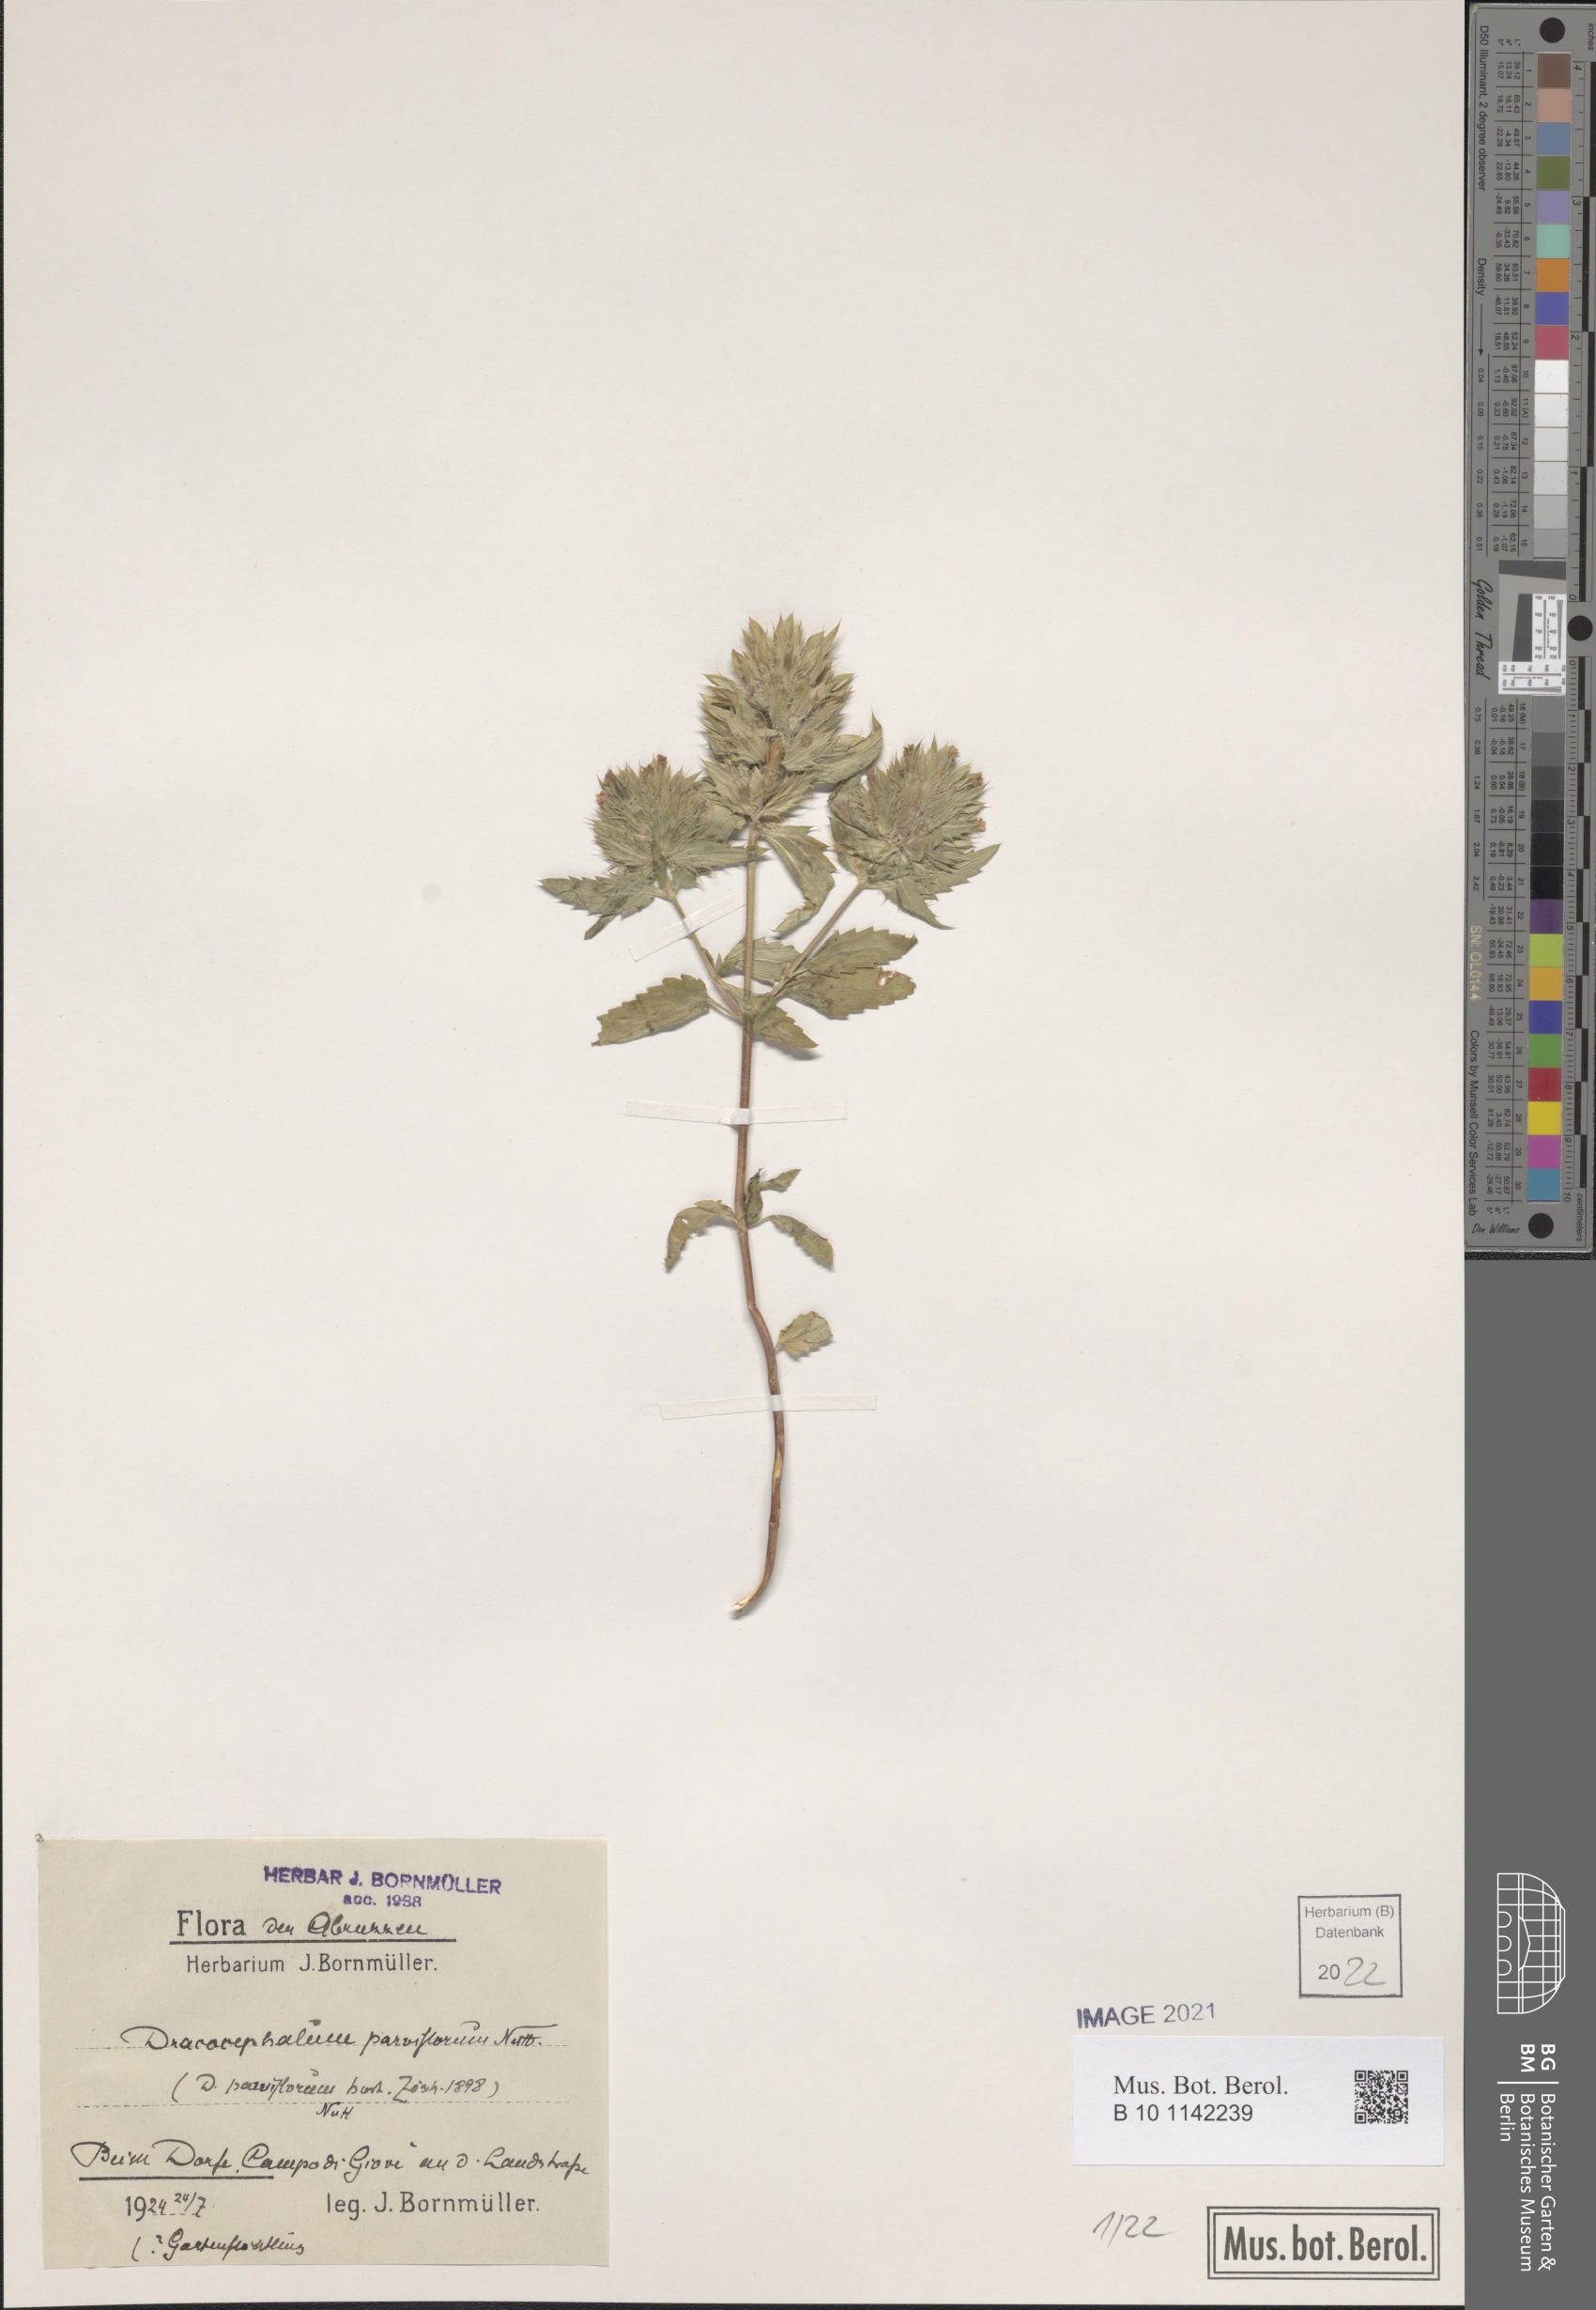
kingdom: Plantae
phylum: Tracheophyta
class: Magnoliopsida
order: Lamiales
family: Lamiaceae
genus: Dracocephalum
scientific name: Dracocephalum parviflorum
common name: American dragonhead
